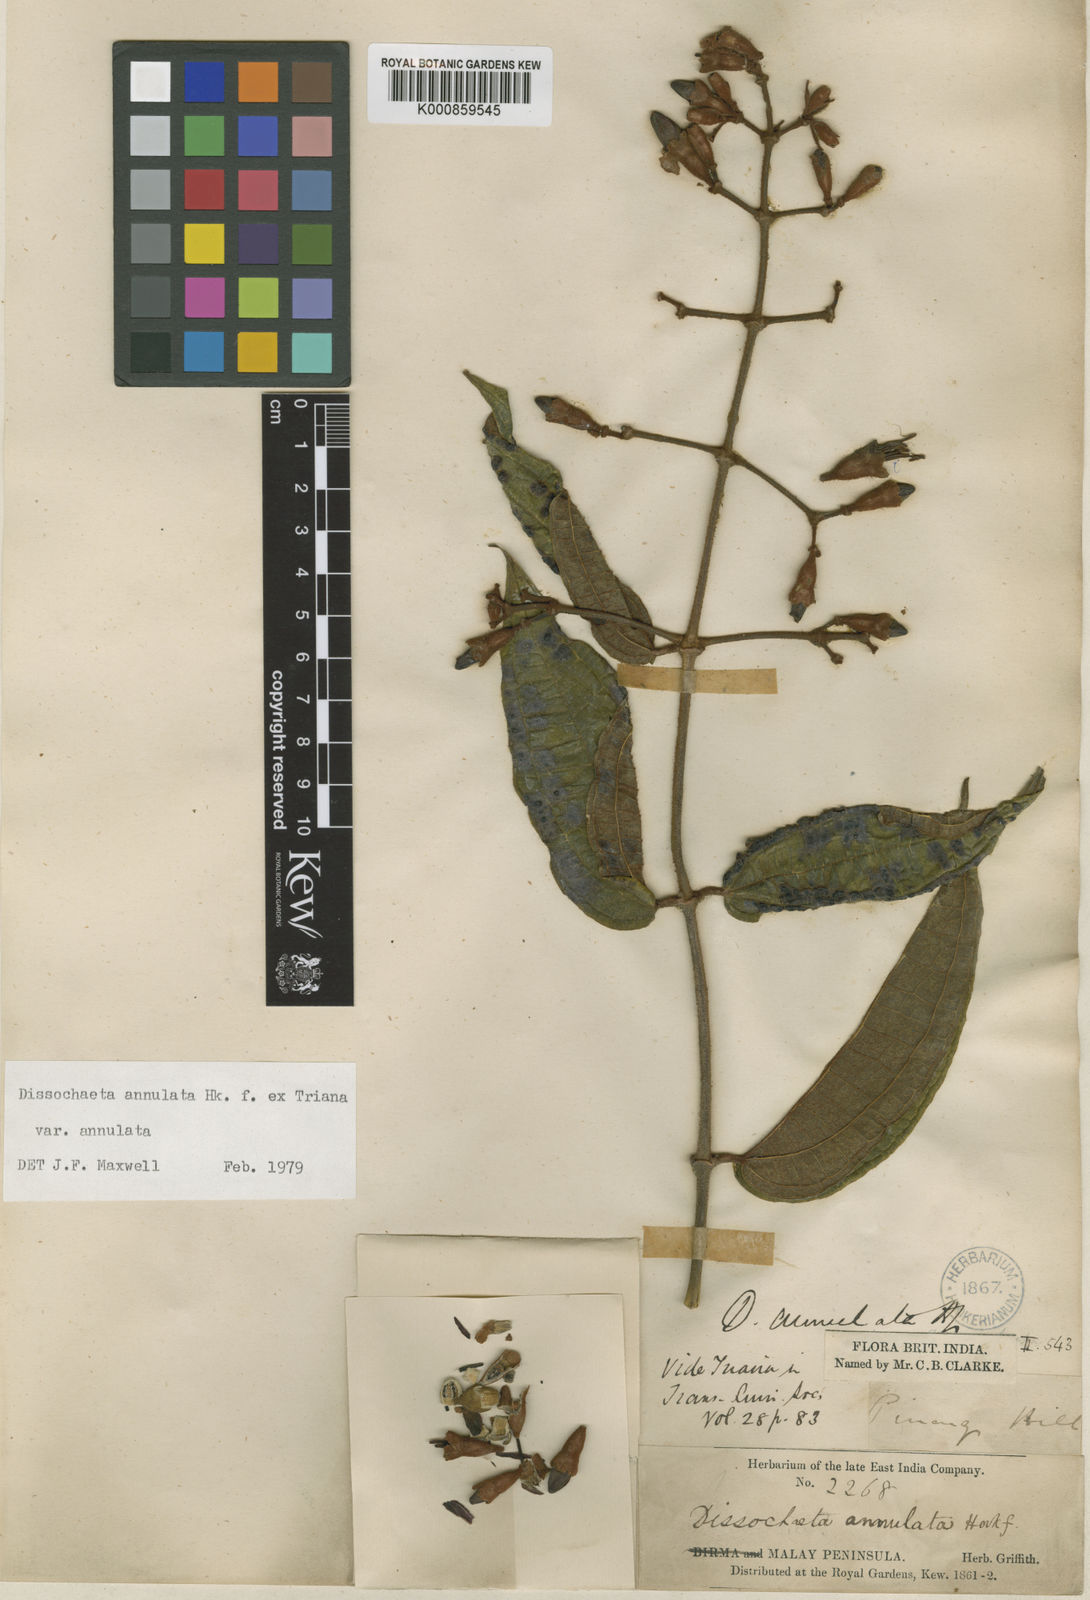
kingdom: Plantae
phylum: Tracheophyta
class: Magnoliopsida
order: Myrtales
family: Melastomataceae
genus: Dissochaeta
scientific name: Dissochaeta annulata
